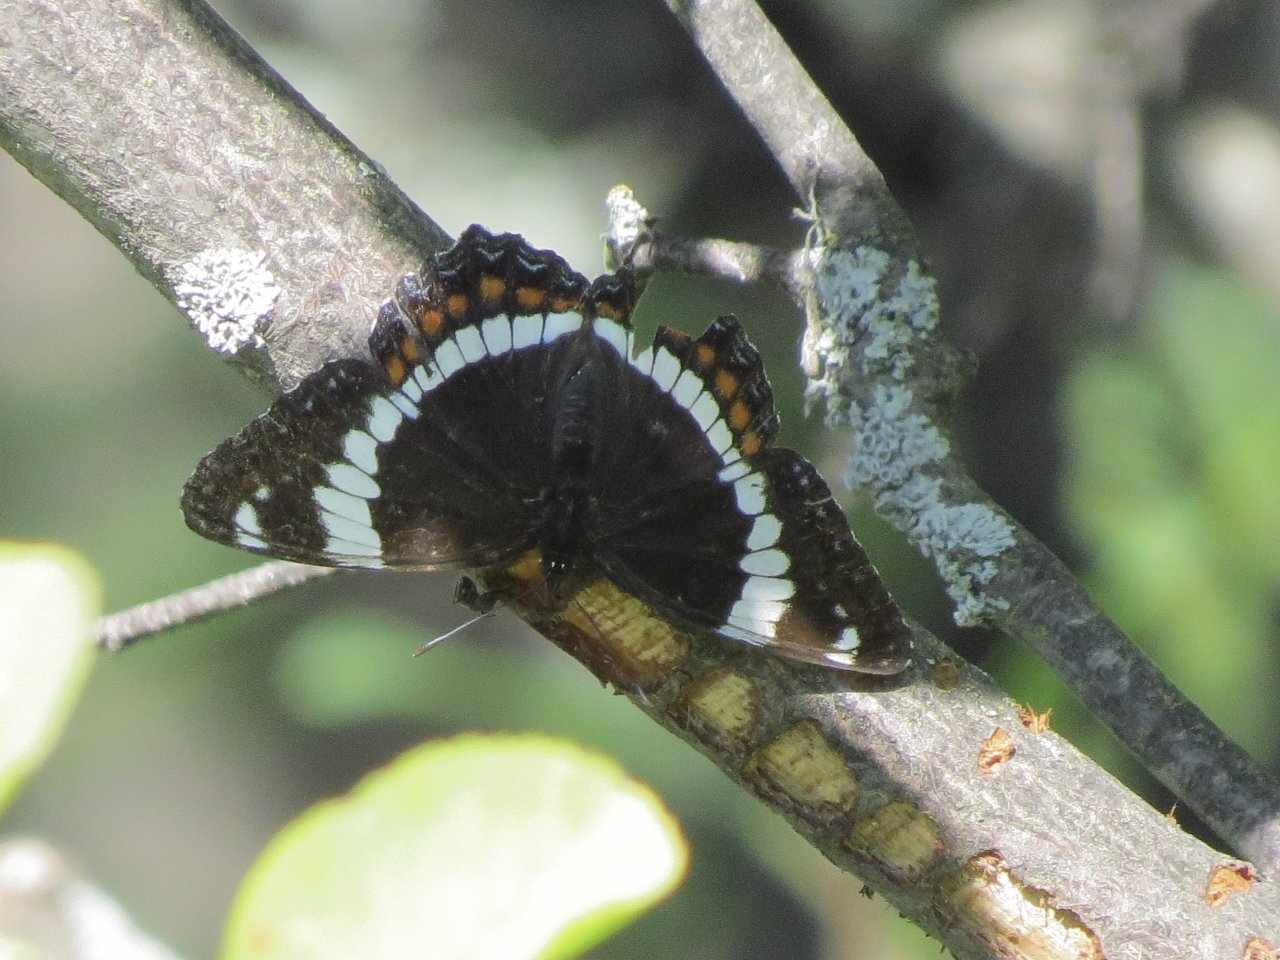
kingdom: Animalia
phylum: Arthropoda
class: Insecta
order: Lepidoptera
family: Nymphalidae
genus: Limenitis
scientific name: Limenitis arthemis
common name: Red-spotted Admiral
